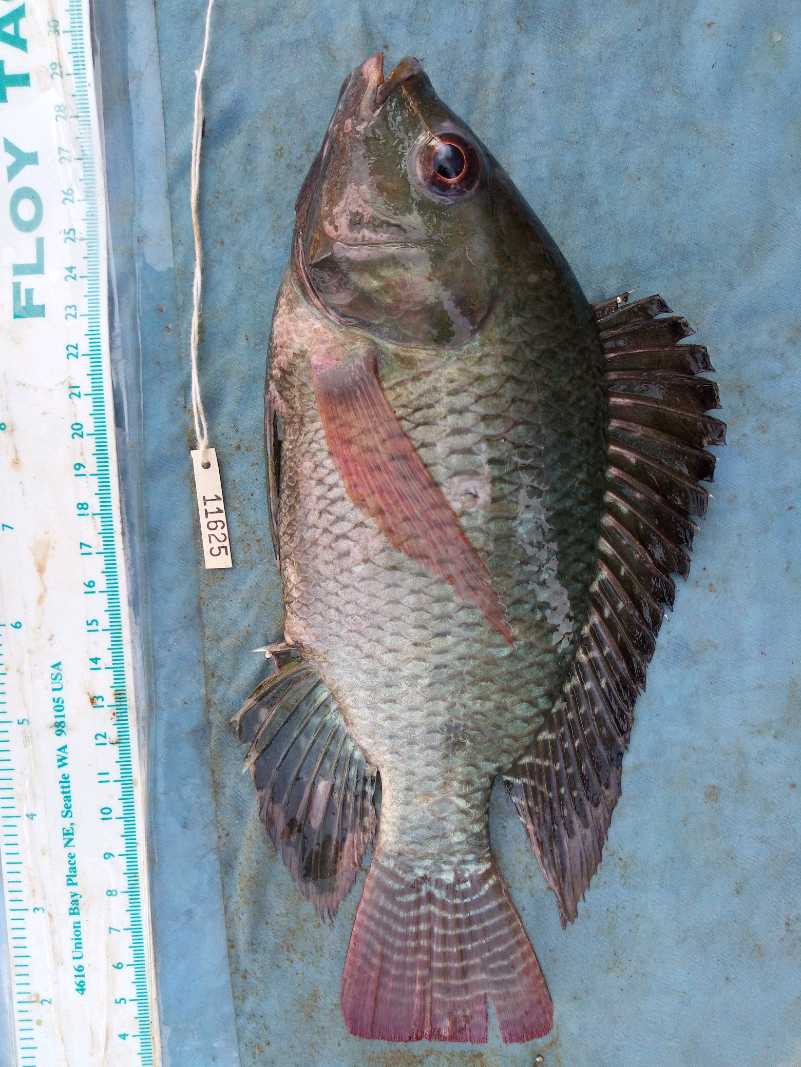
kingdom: Animalia
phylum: Chordata
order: Perciformes
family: Cichlidae
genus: Oreochromis
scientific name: Oreochromis niloticus
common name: Nile tilapia
